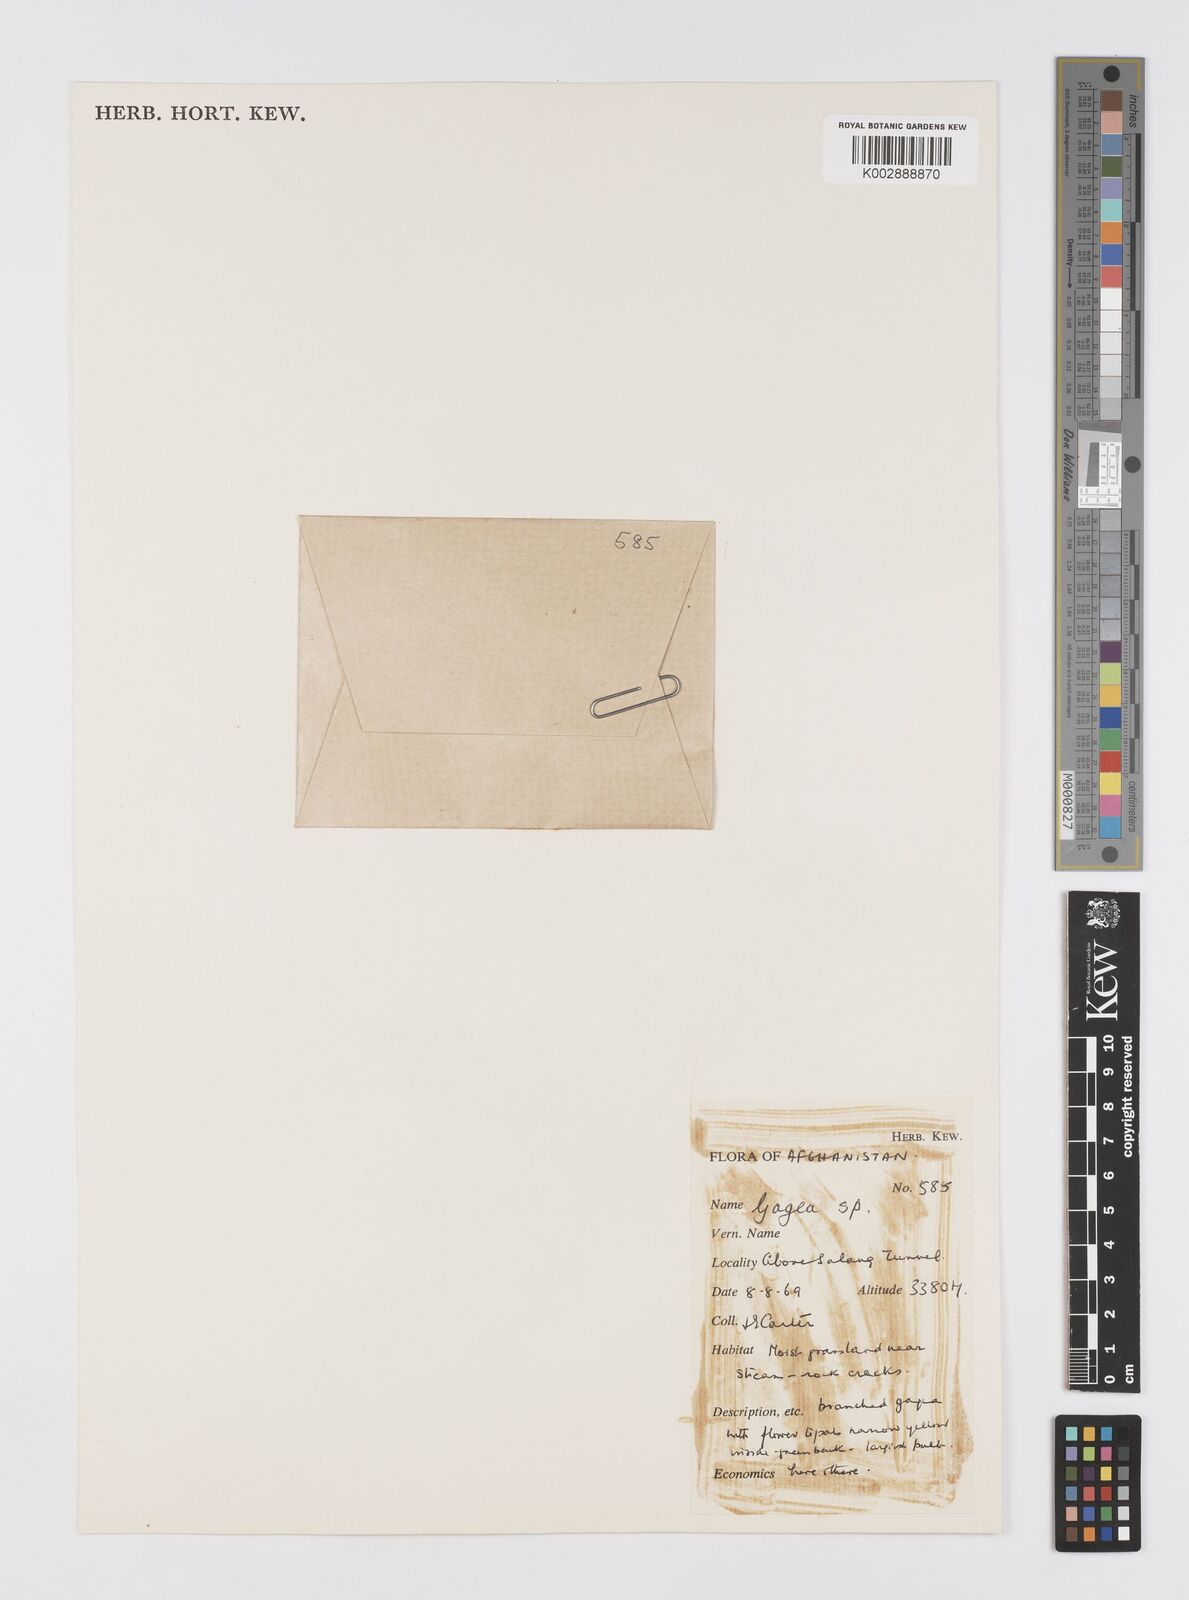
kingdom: Plantae
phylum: Tracheophyta
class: Liliopsida
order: Liliales
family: Liliaceae
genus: Gagea
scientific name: Gagea
